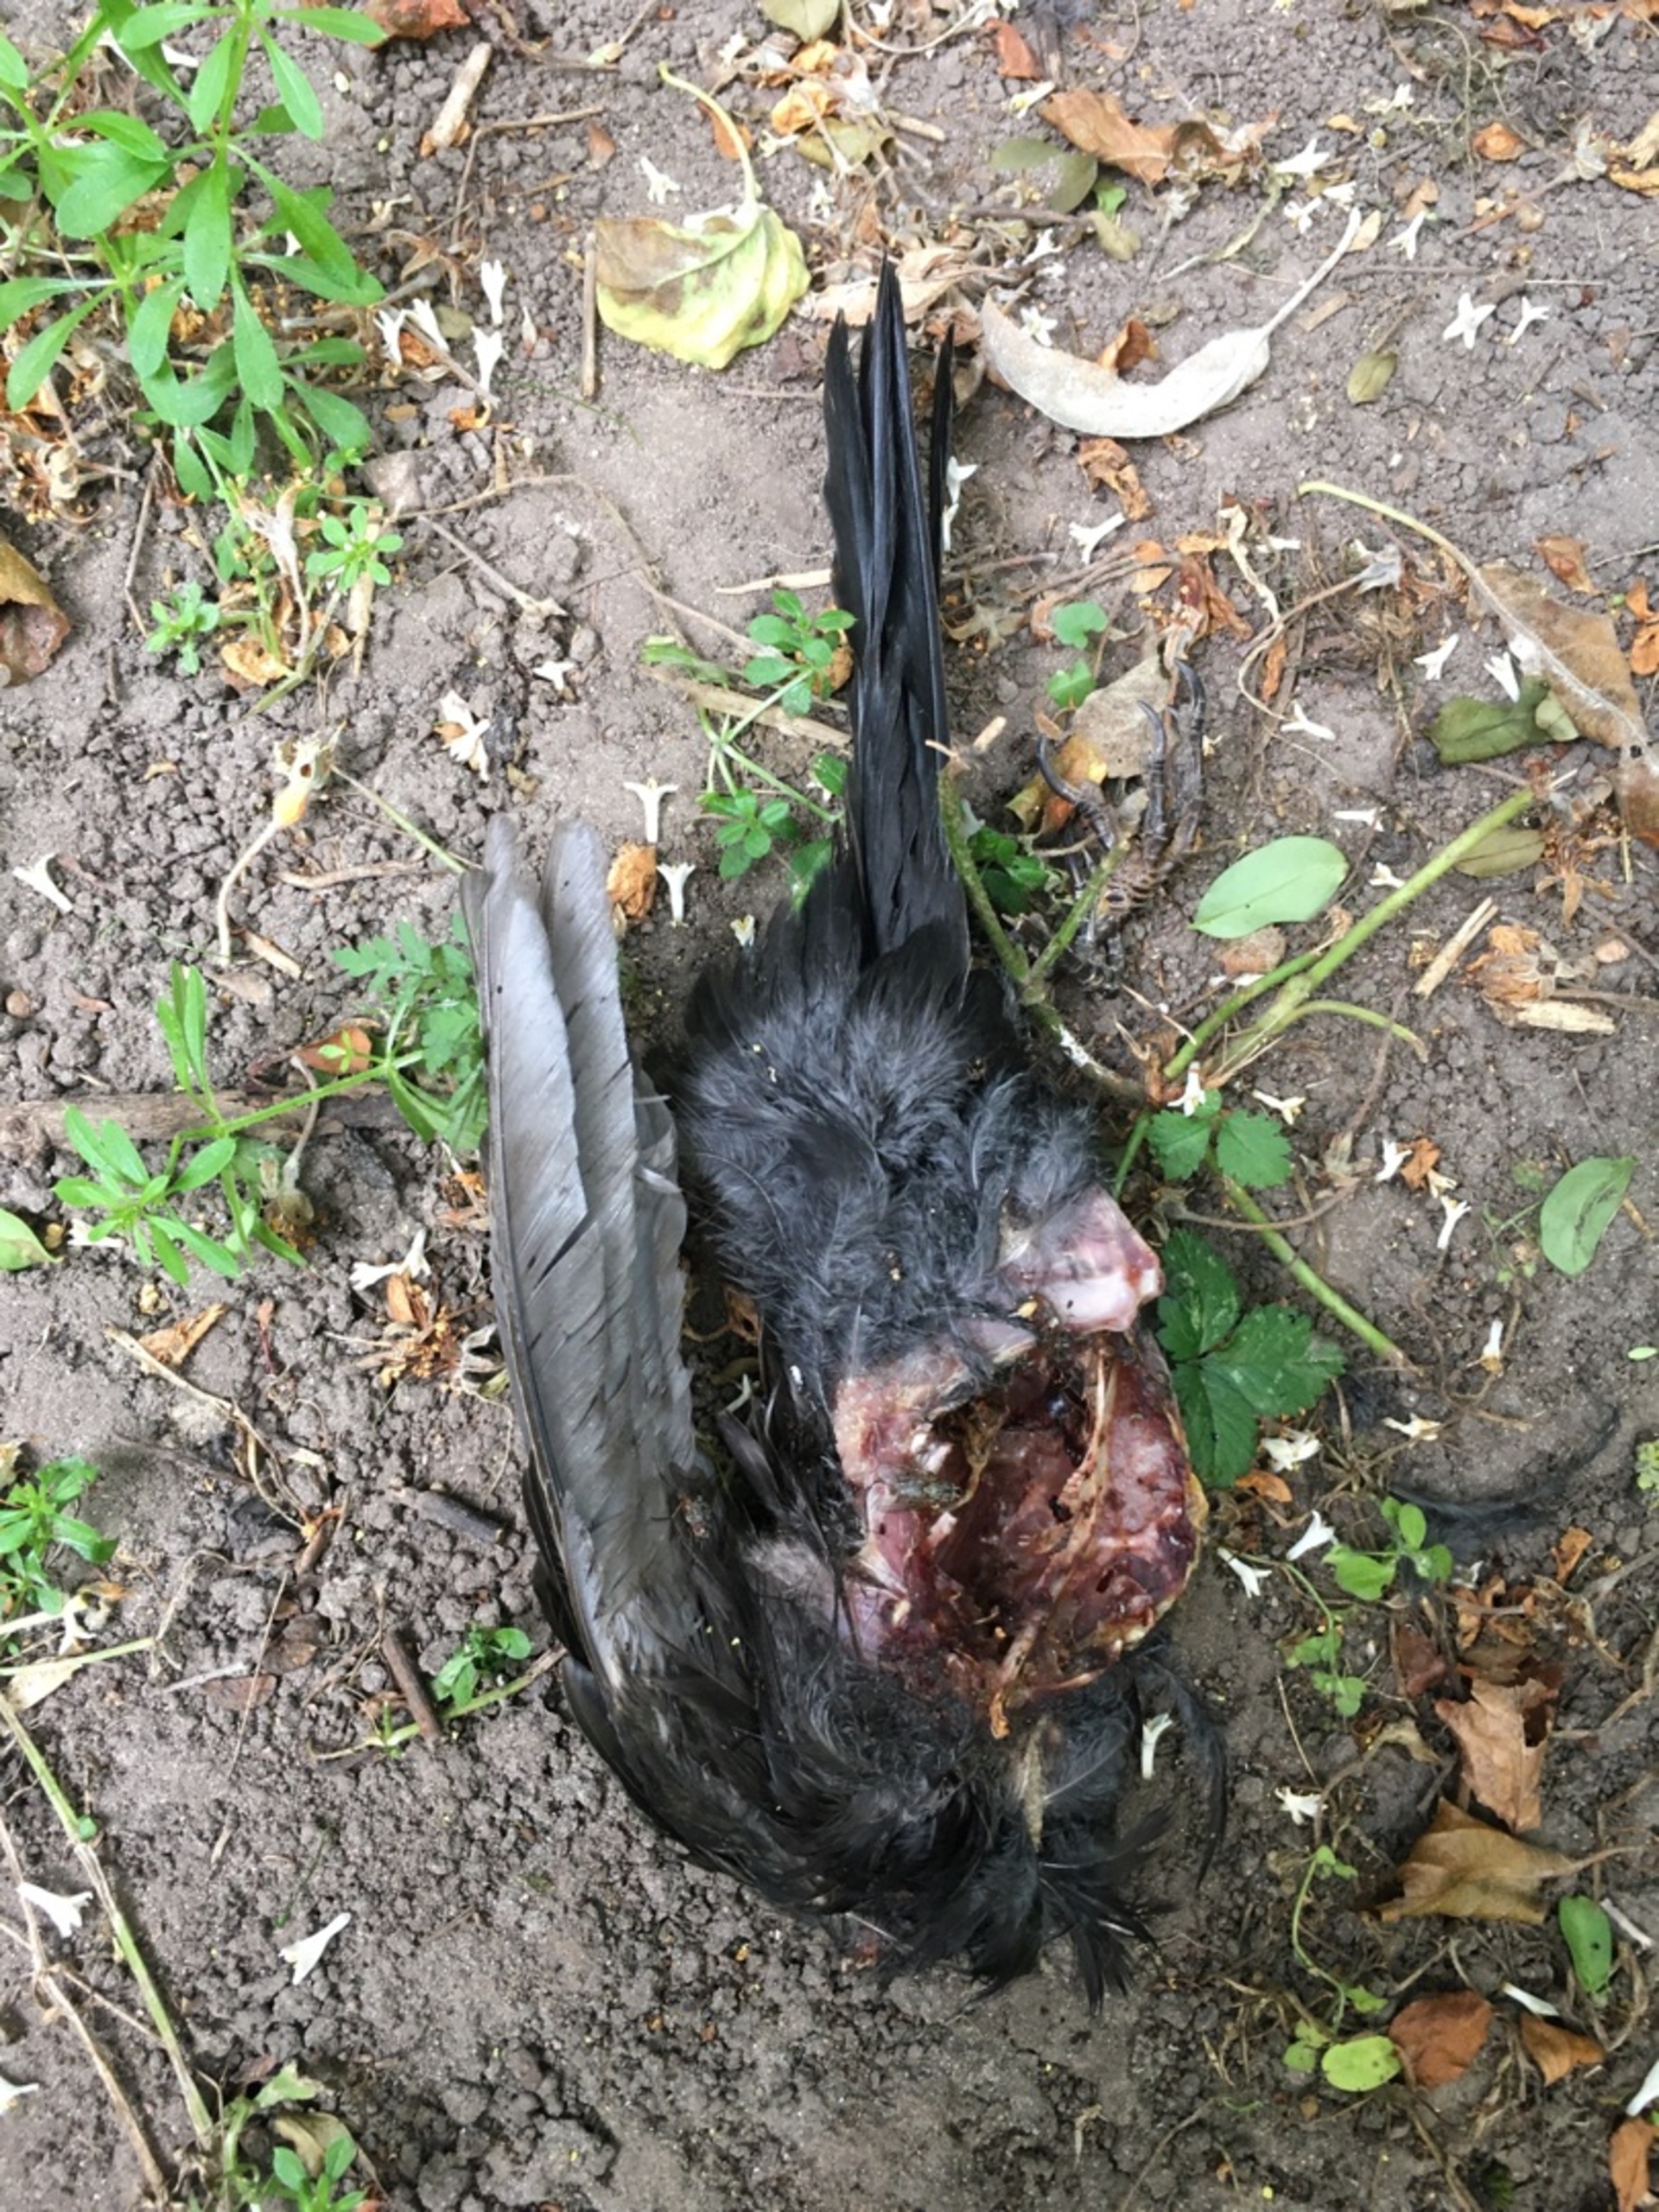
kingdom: Animalia
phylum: Chordata
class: Aves
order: Passeriformes
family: Turdidae
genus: Turdus
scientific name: Turdus merula
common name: Solsort
